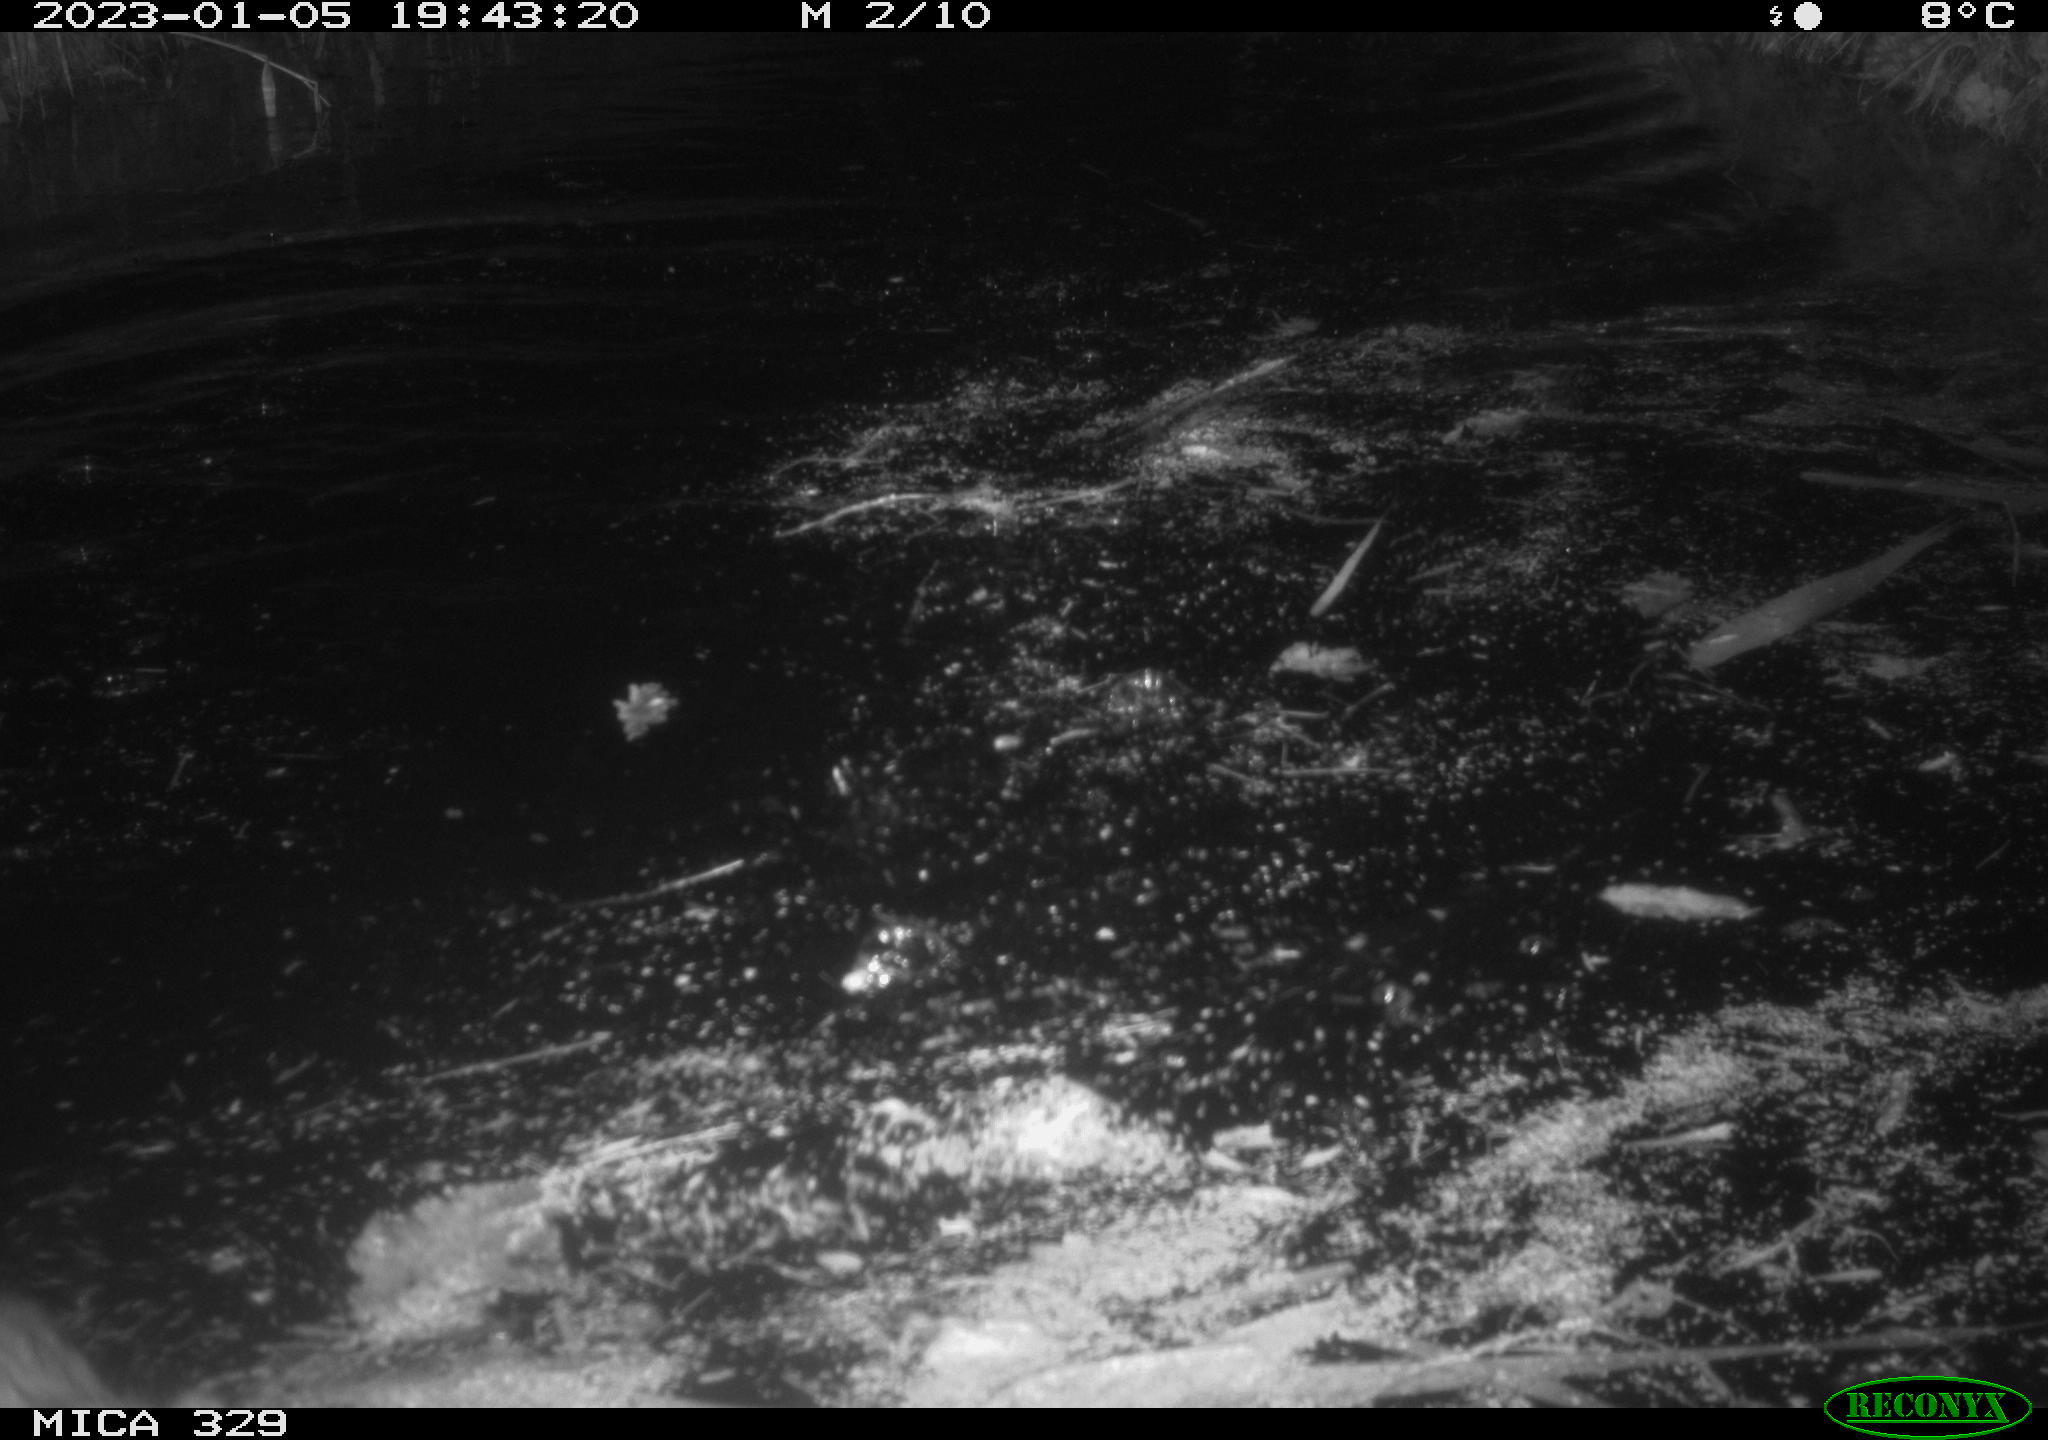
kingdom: Animalia
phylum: Chordata
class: Mammalia
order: Rodentia
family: Cricetidae
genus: Ondatra
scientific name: Ondatra zibethicus
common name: Muskrat
